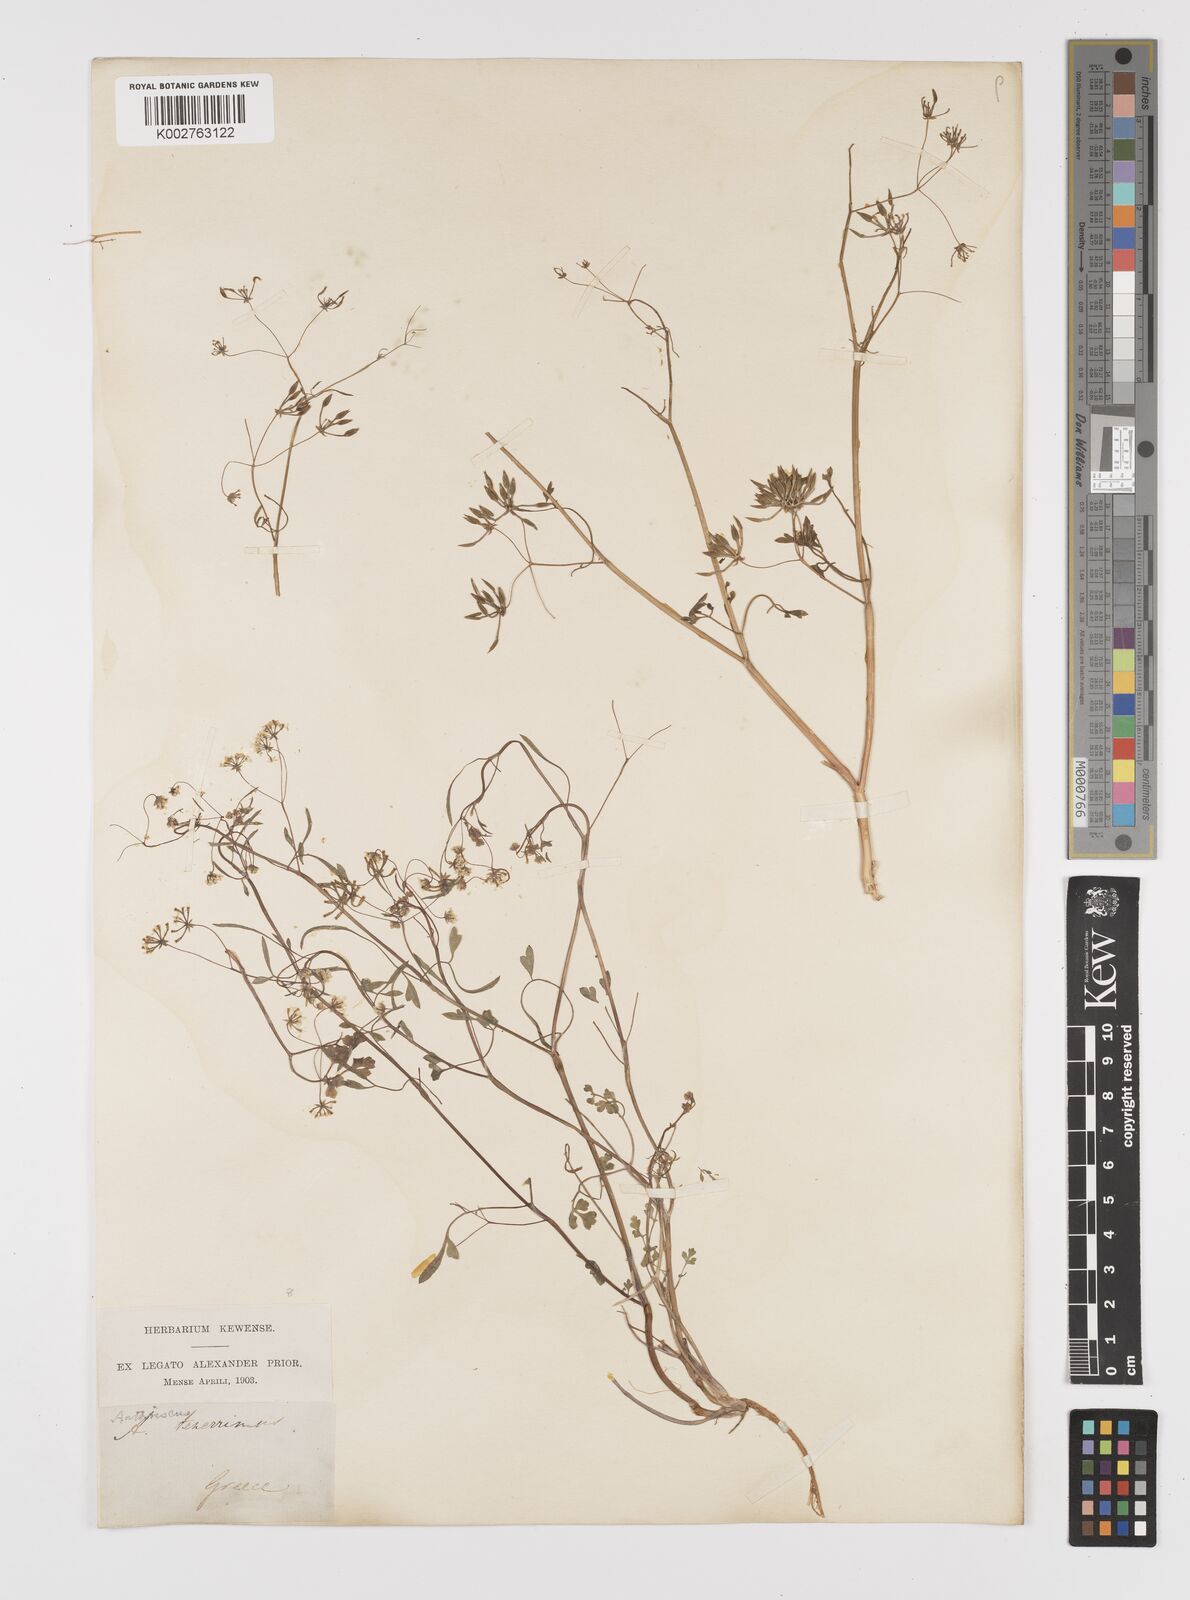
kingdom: Plantae
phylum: Tracheophyta
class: Magnoliopsida
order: Apiales
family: Apiaceae
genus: Anthriscus
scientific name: Anthriscus tenerrima
